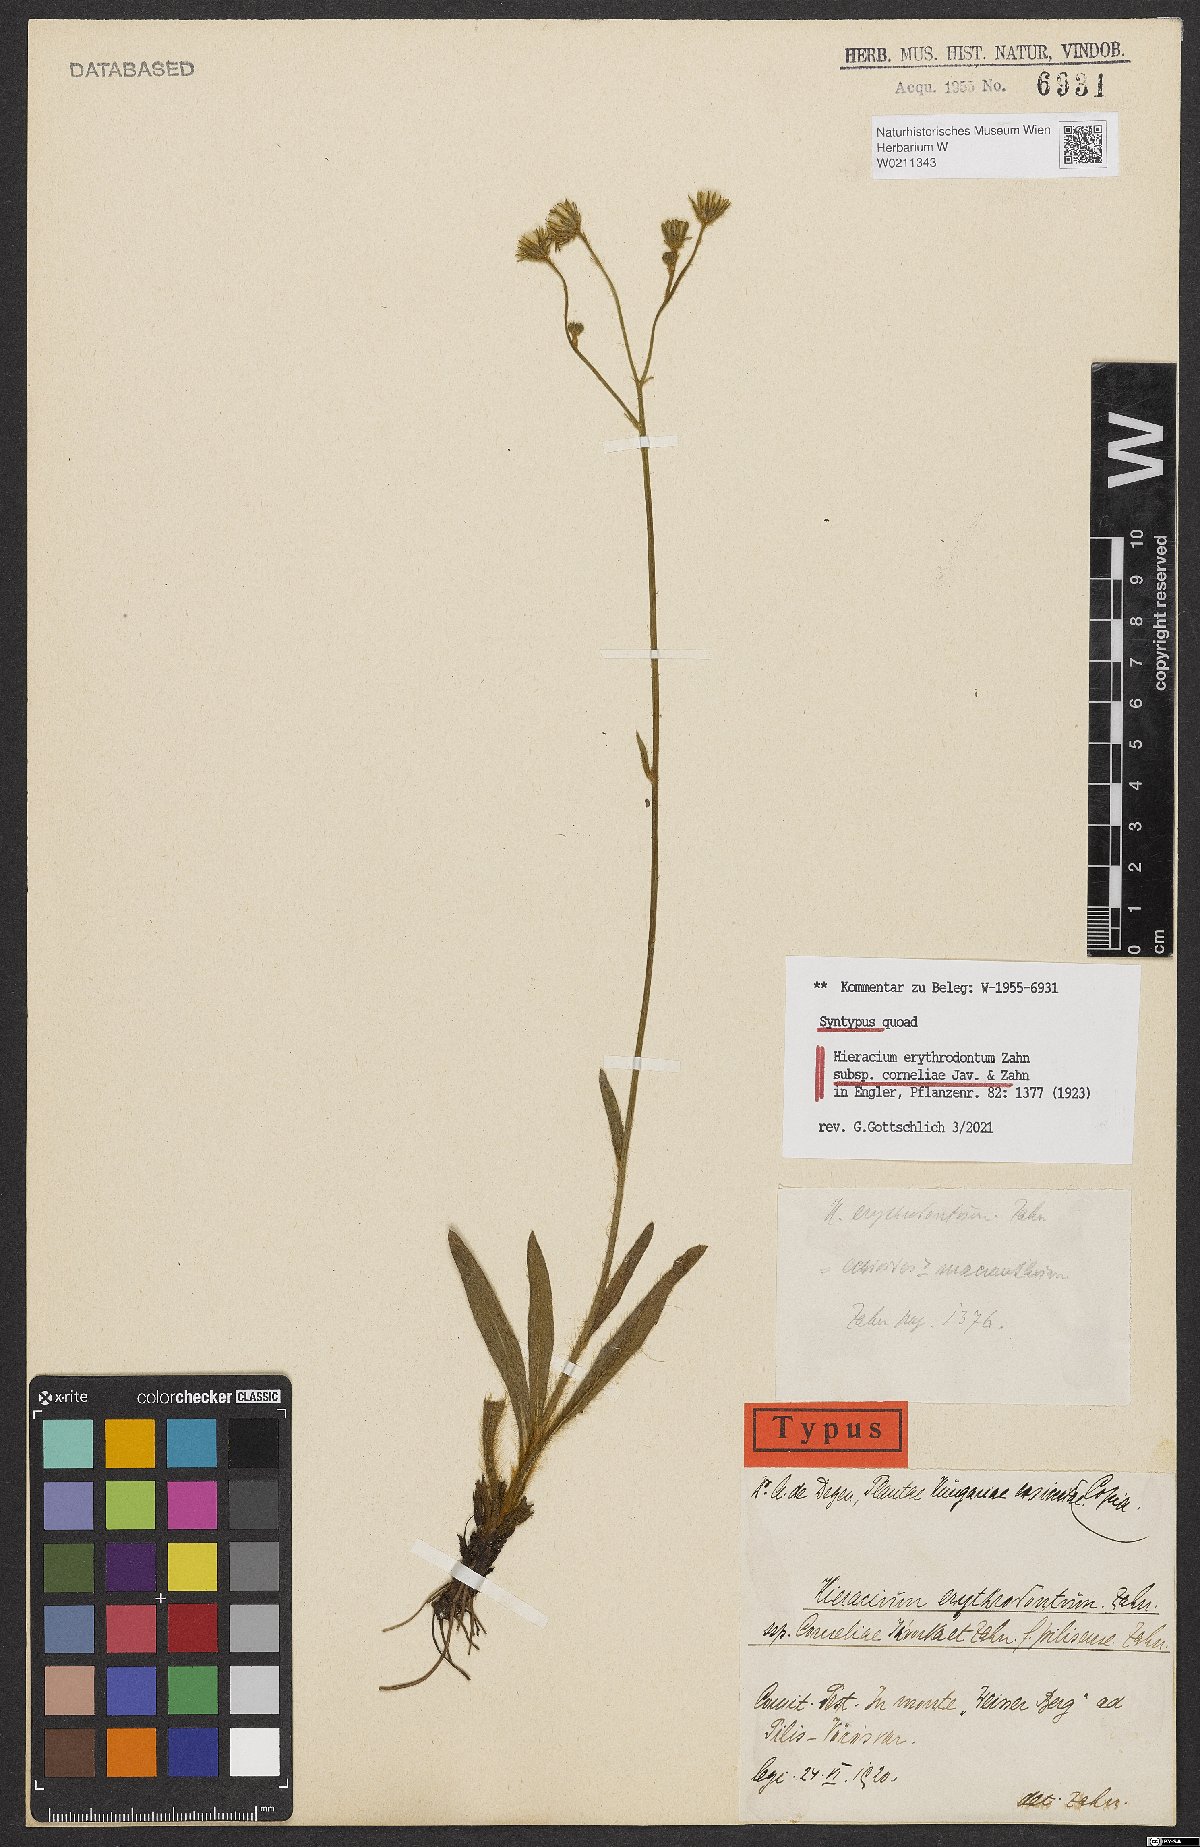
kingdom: Plantae
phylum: Tracheophyta
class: Magnoliopsida
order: Asterales
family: Asteraceae
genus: Pilosella
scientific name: Pilosella erythrodonta
